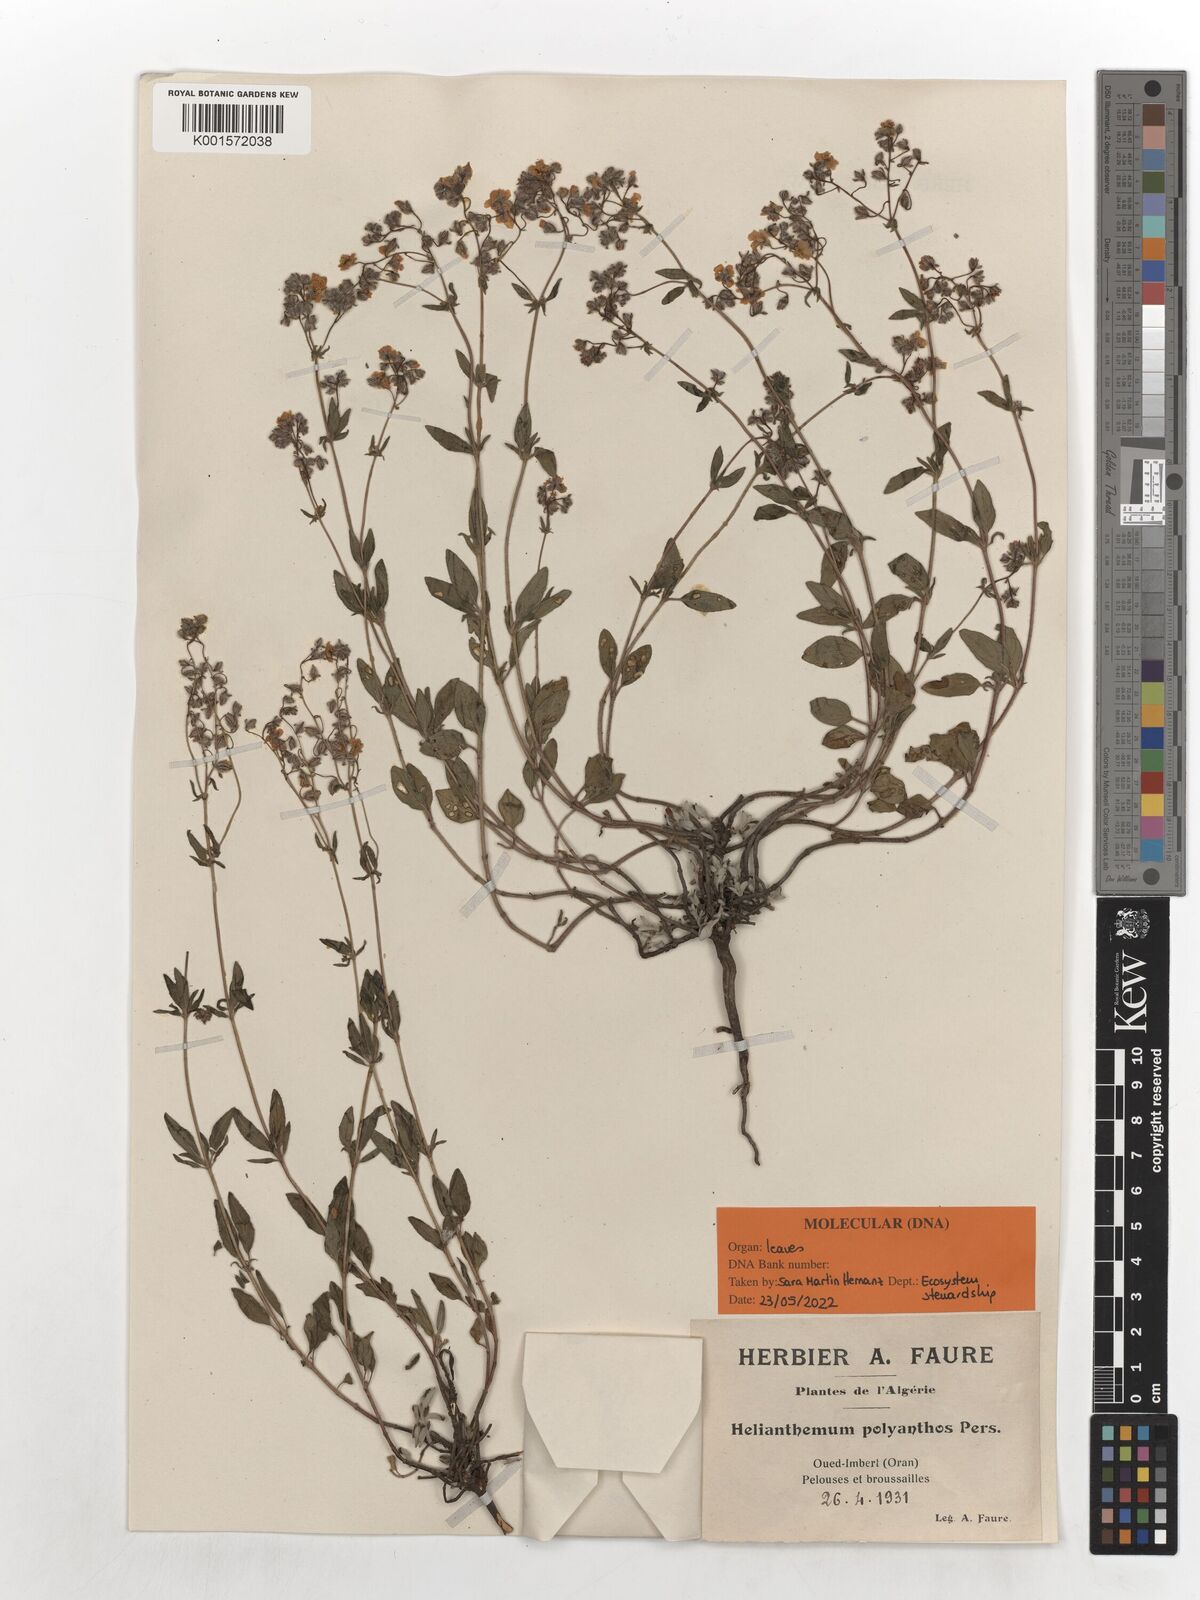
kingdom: Plantae
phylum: Tracheophyta
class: Magnoliopsida
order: Malvales
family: Cistaceae
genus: Helianthemum
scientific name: Helianthemum polyanthum
